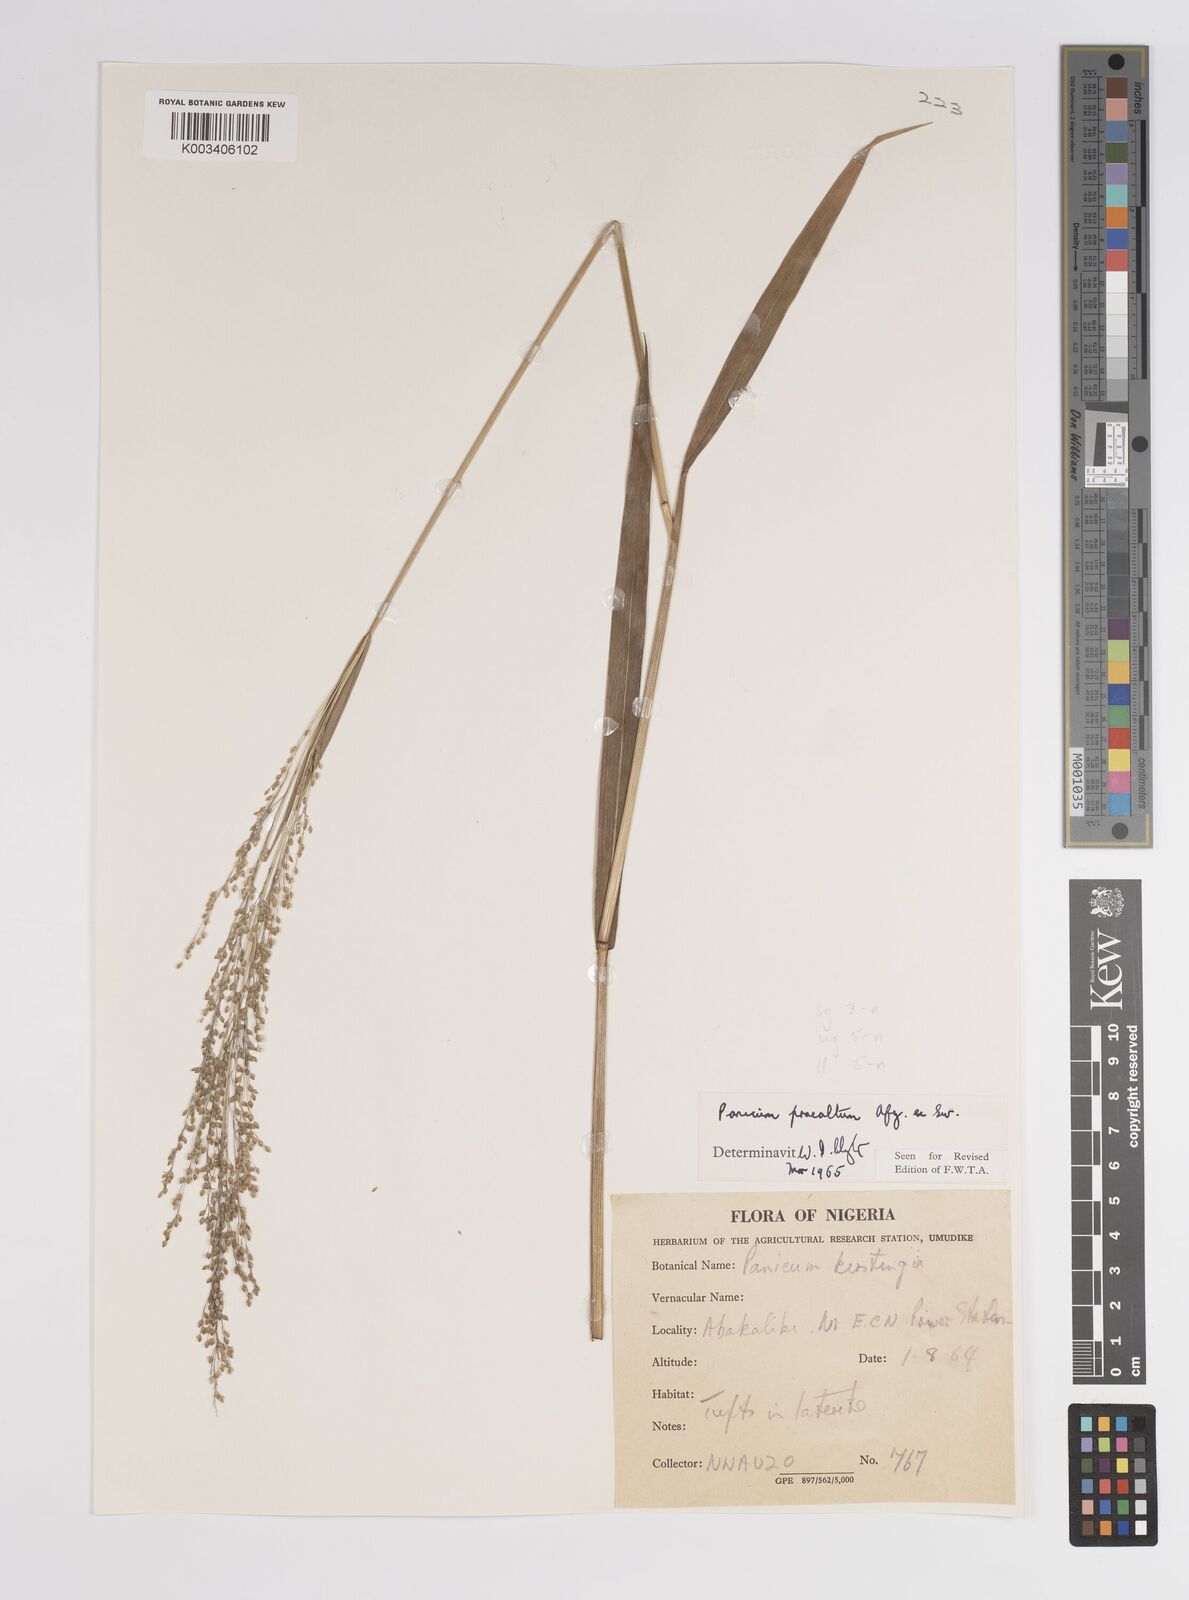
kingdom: Plantae
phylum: Tracheophyta
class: Liliopsida
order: Poales
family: Poaceae
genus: Trichanthecium
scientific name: Trichanthecium praealtum
